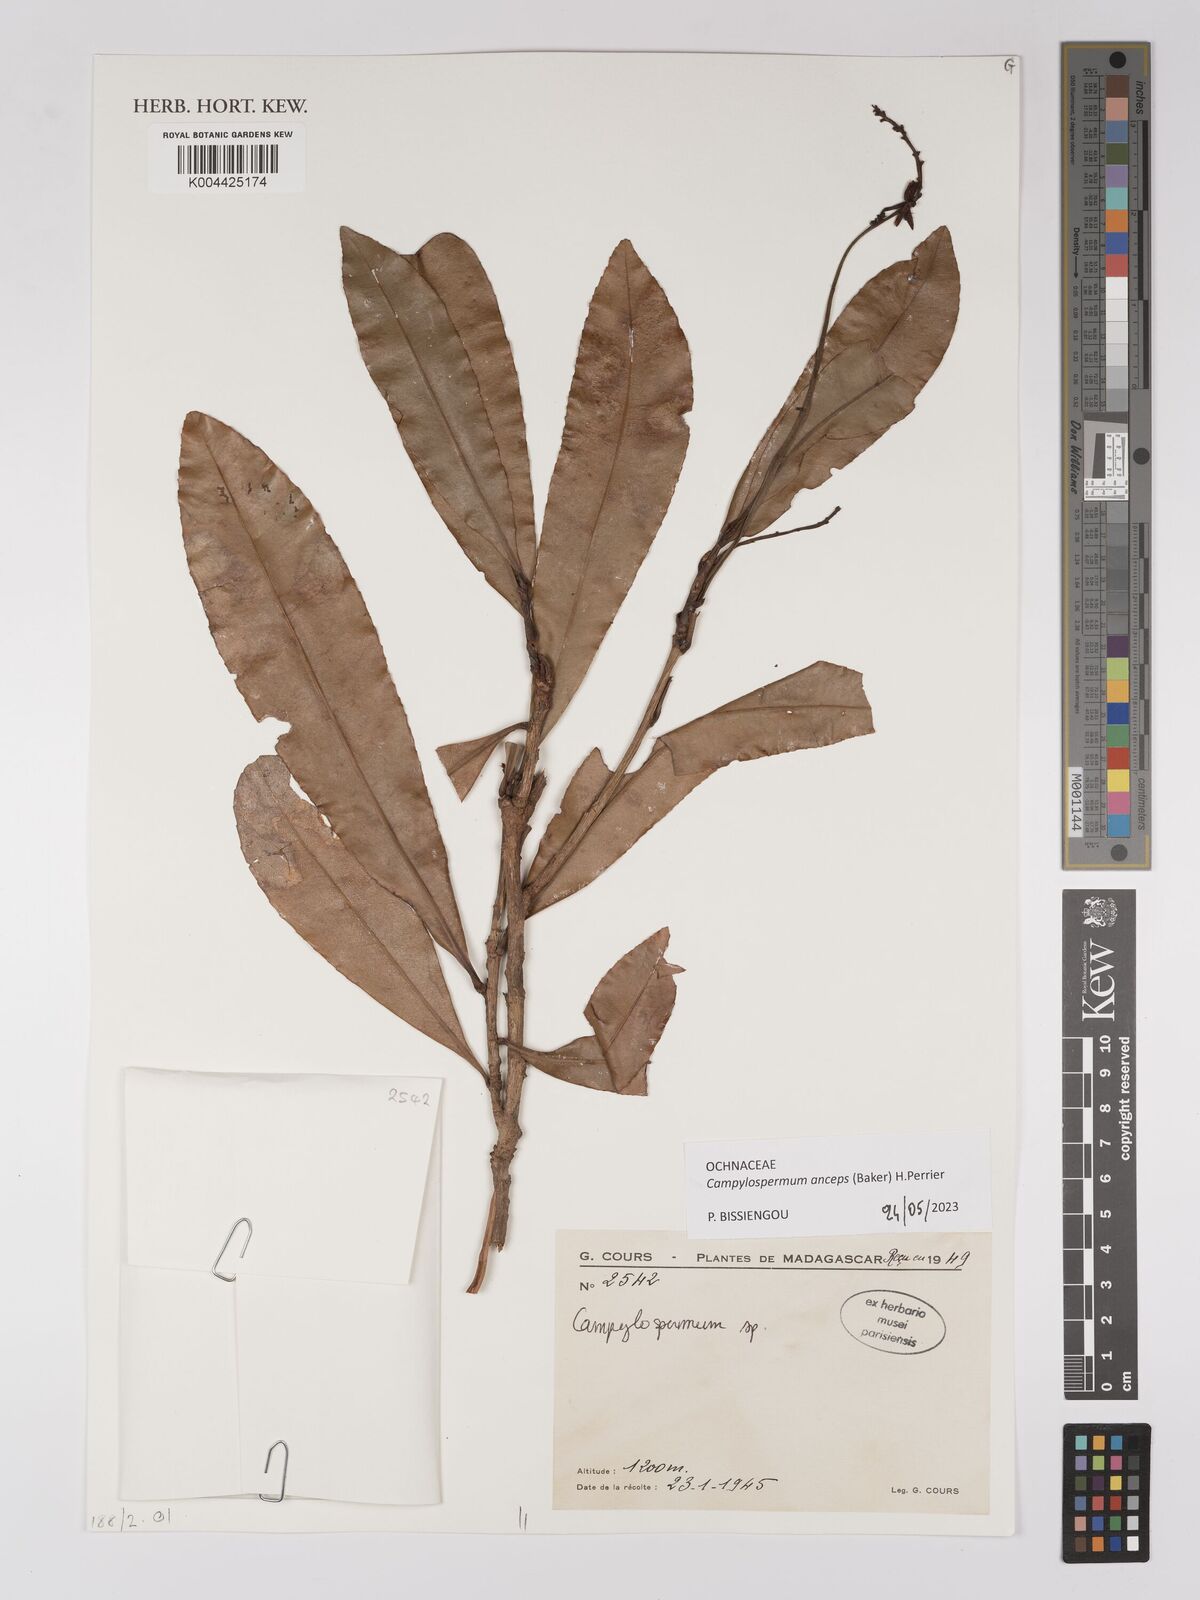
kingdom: Plantae
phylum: Tracheophyta
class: Magnoliopsida
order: Malpighiales
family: Ochnaceae
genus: Campylospermum
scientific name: Campylospermum
